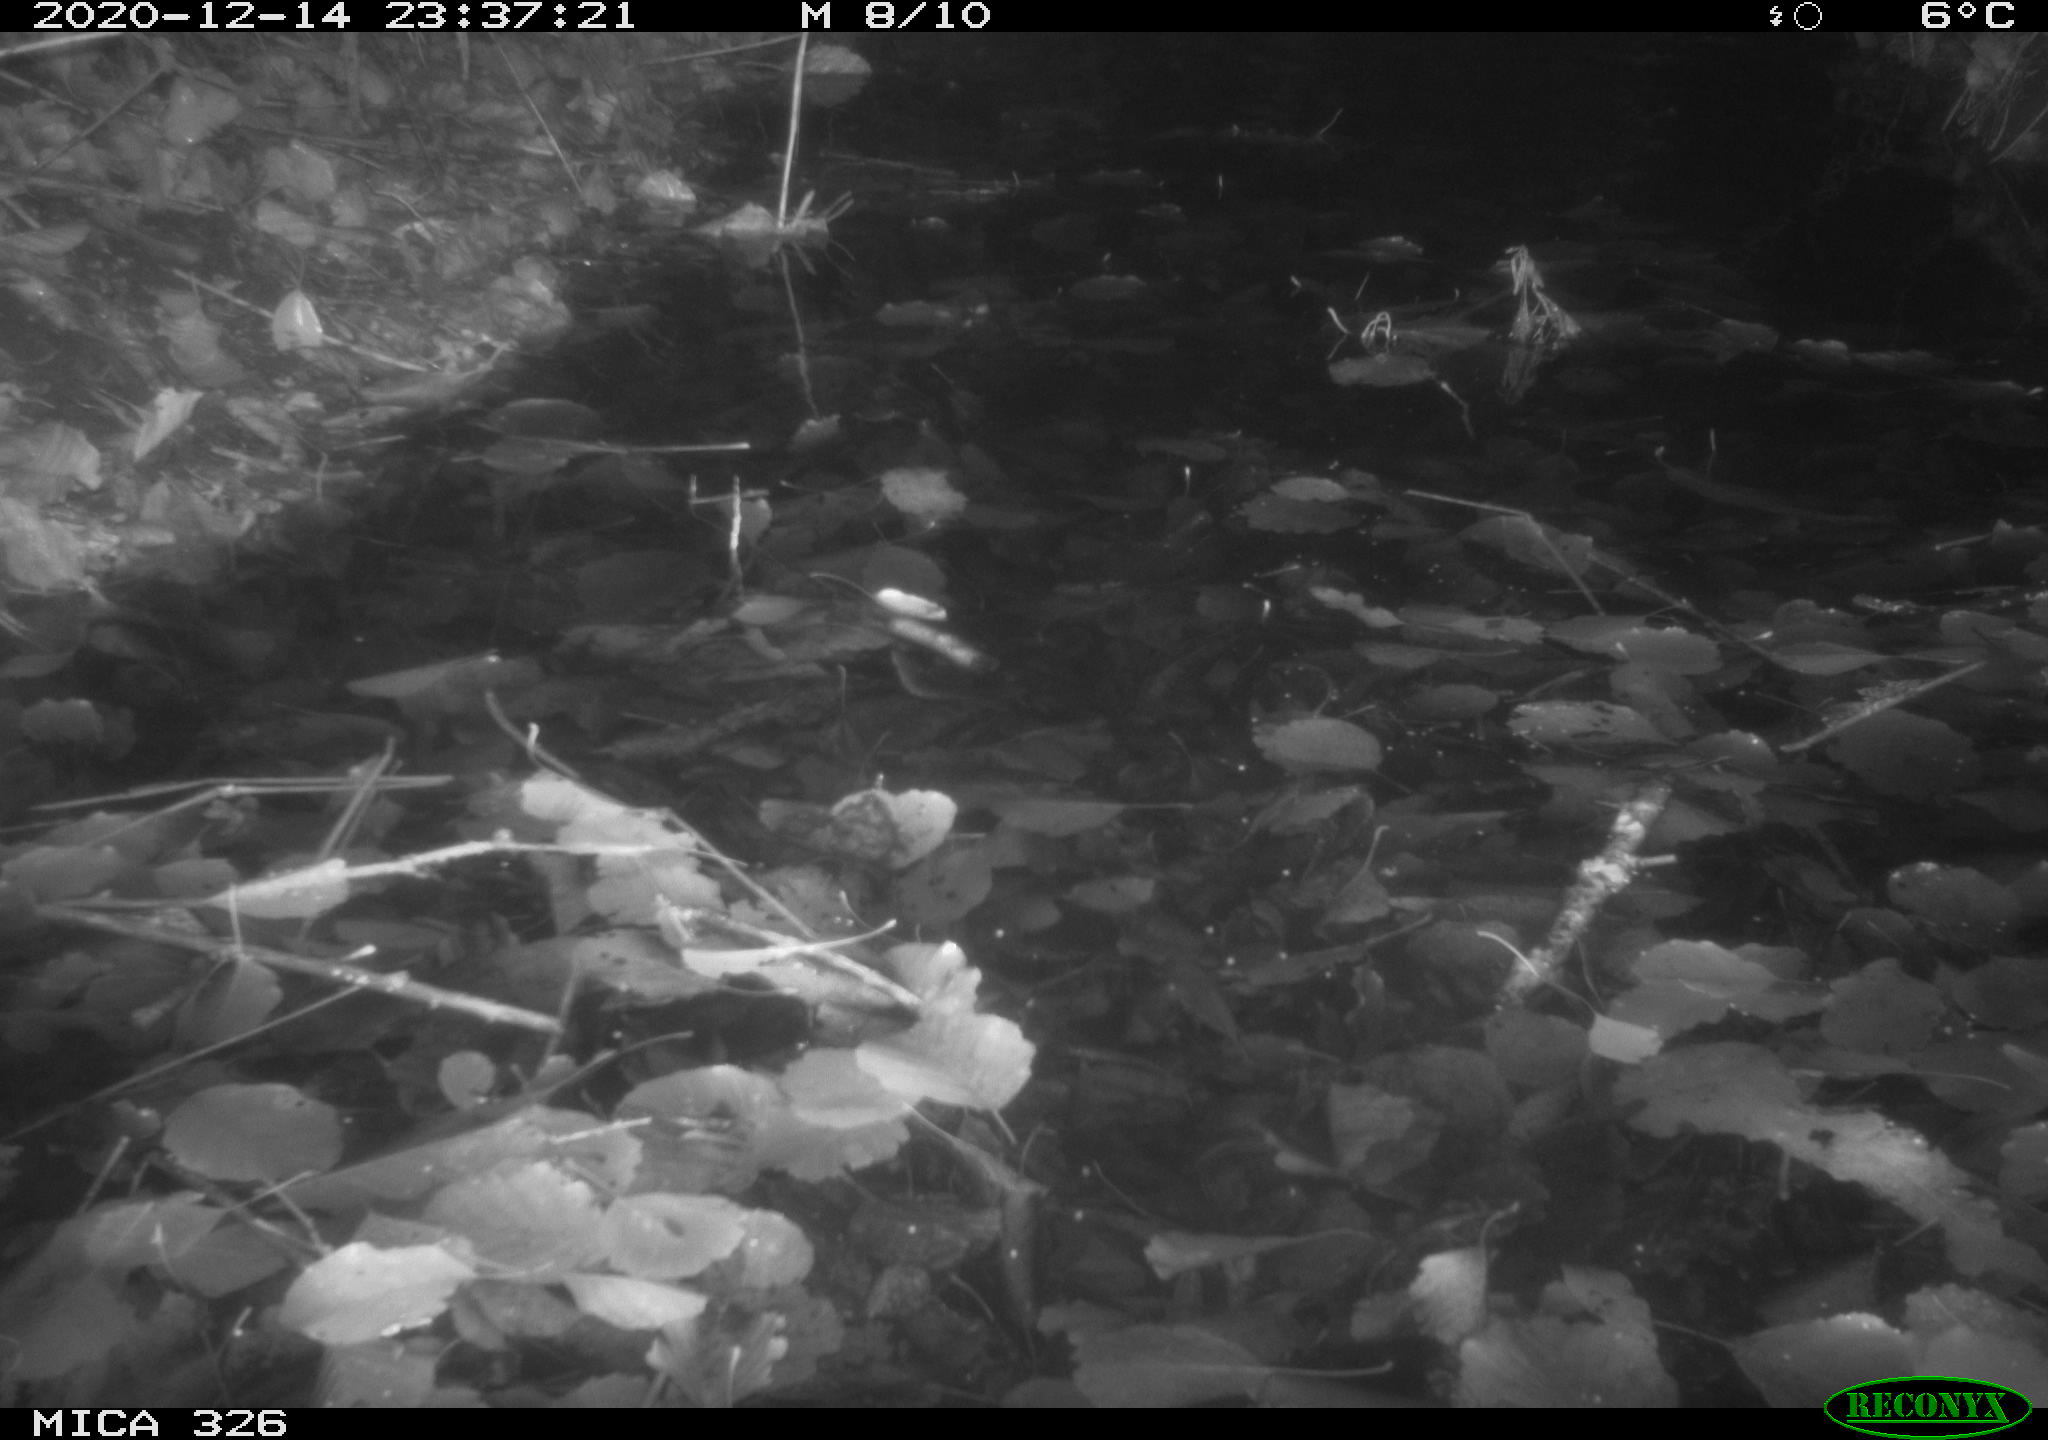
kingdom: Animalia
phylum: Chordata
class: Mammalia
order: Rodentia
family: Cricetidae
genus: Ondatra
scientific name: Ondatra zibethicus
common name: Muskrat
